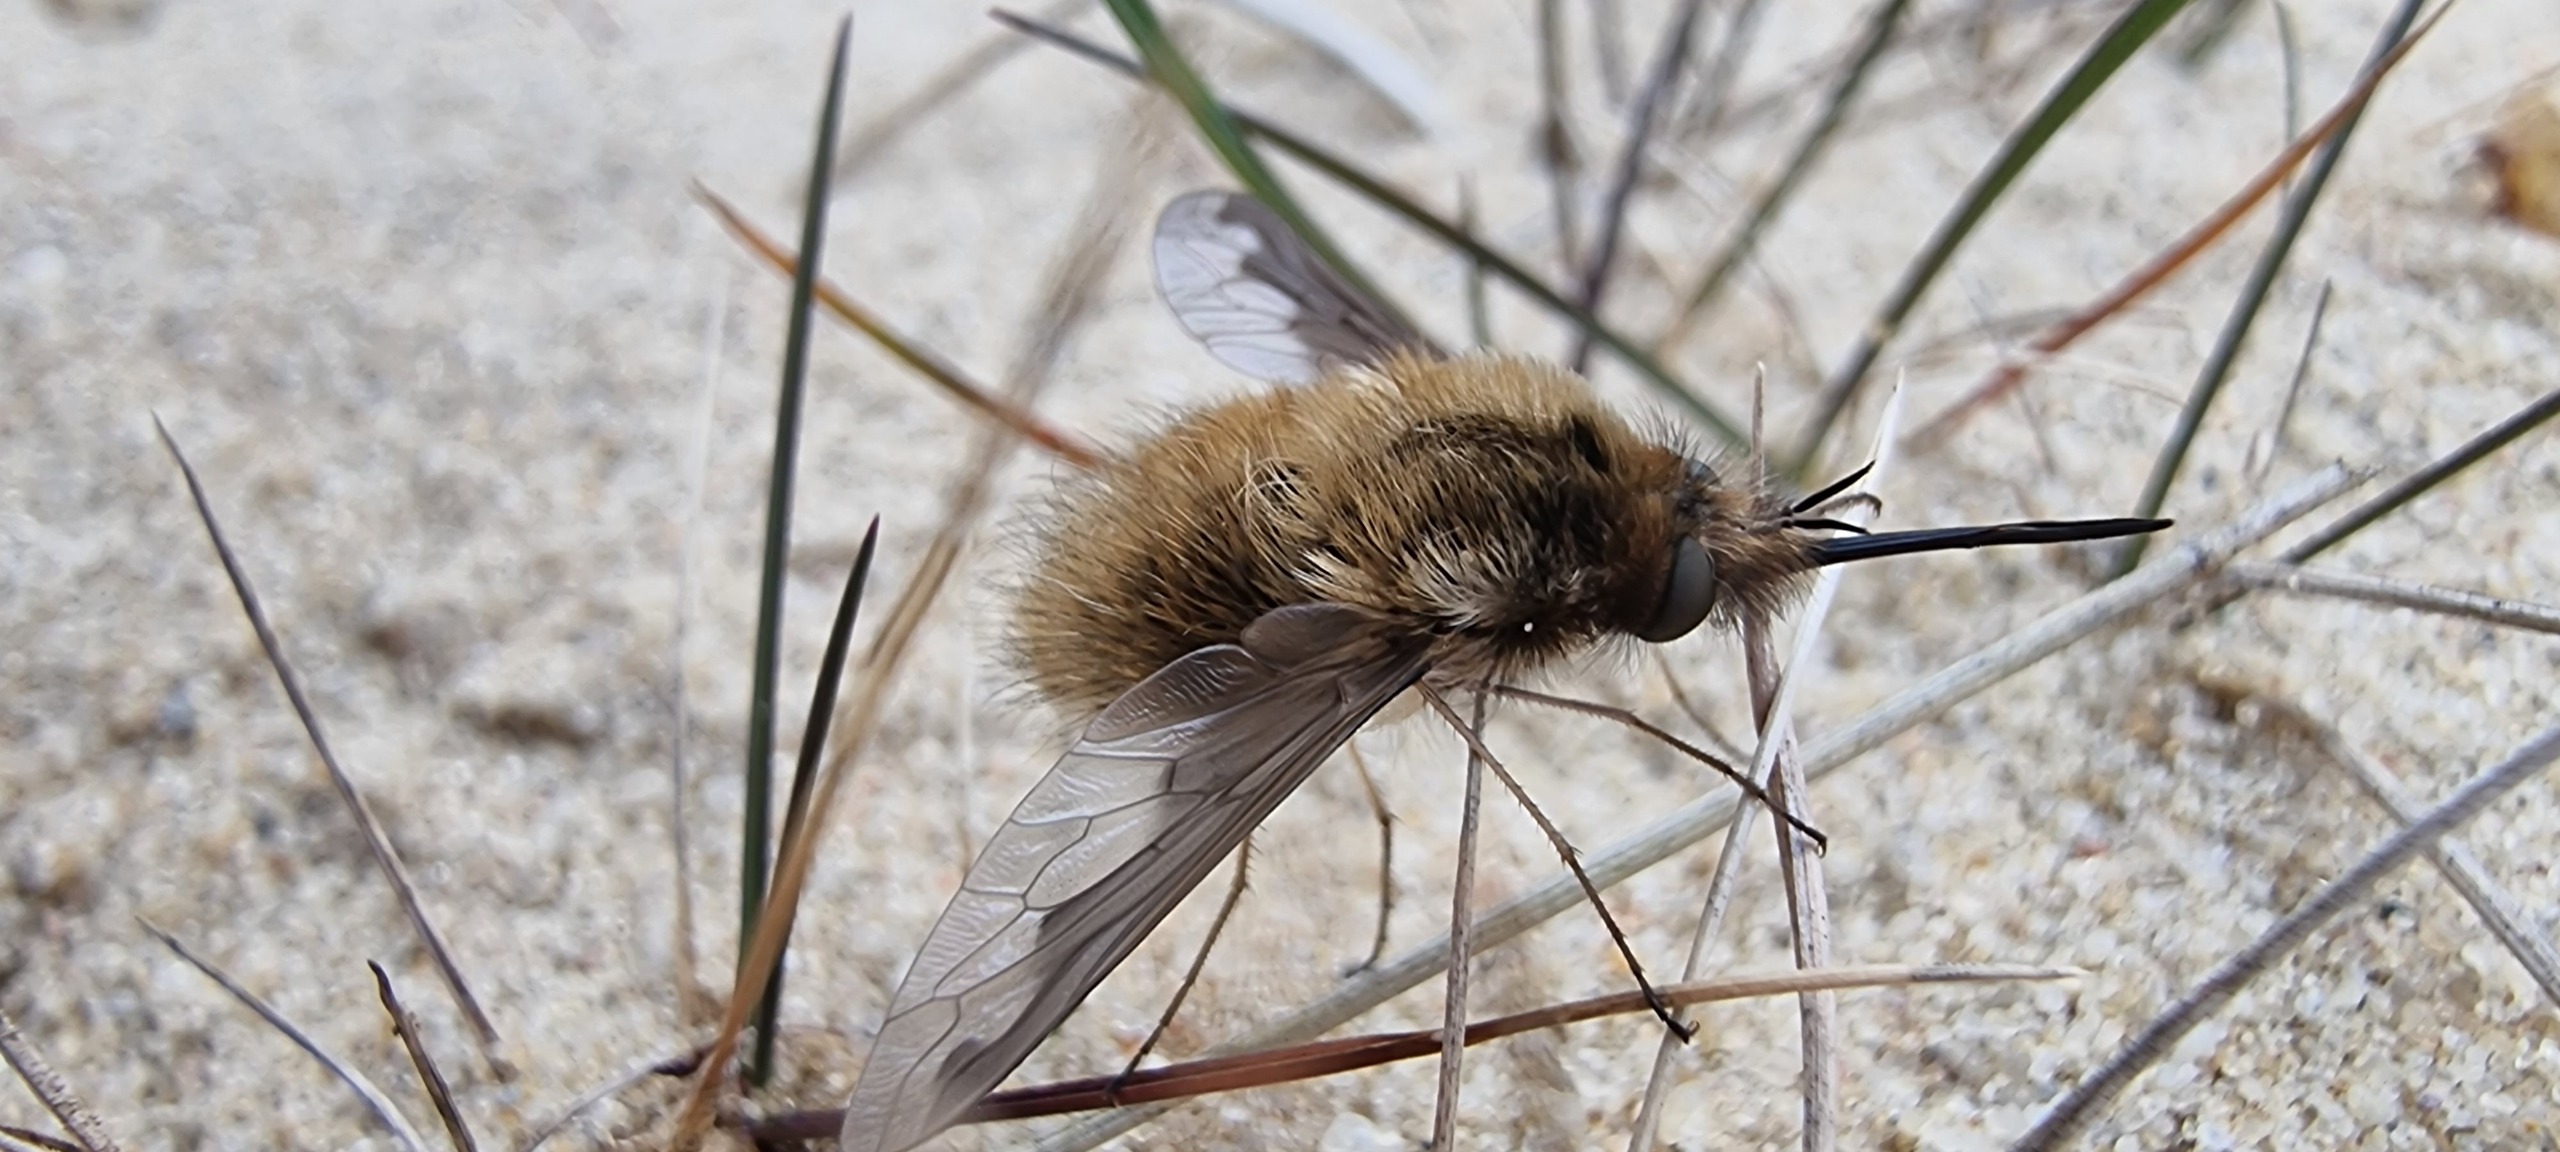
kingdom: Animalia
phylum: Arthropoda
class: Insecta
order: Diptera
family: Bombyliidae
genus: Bombylius
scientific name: Bombylius major
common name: Stor humleflue
